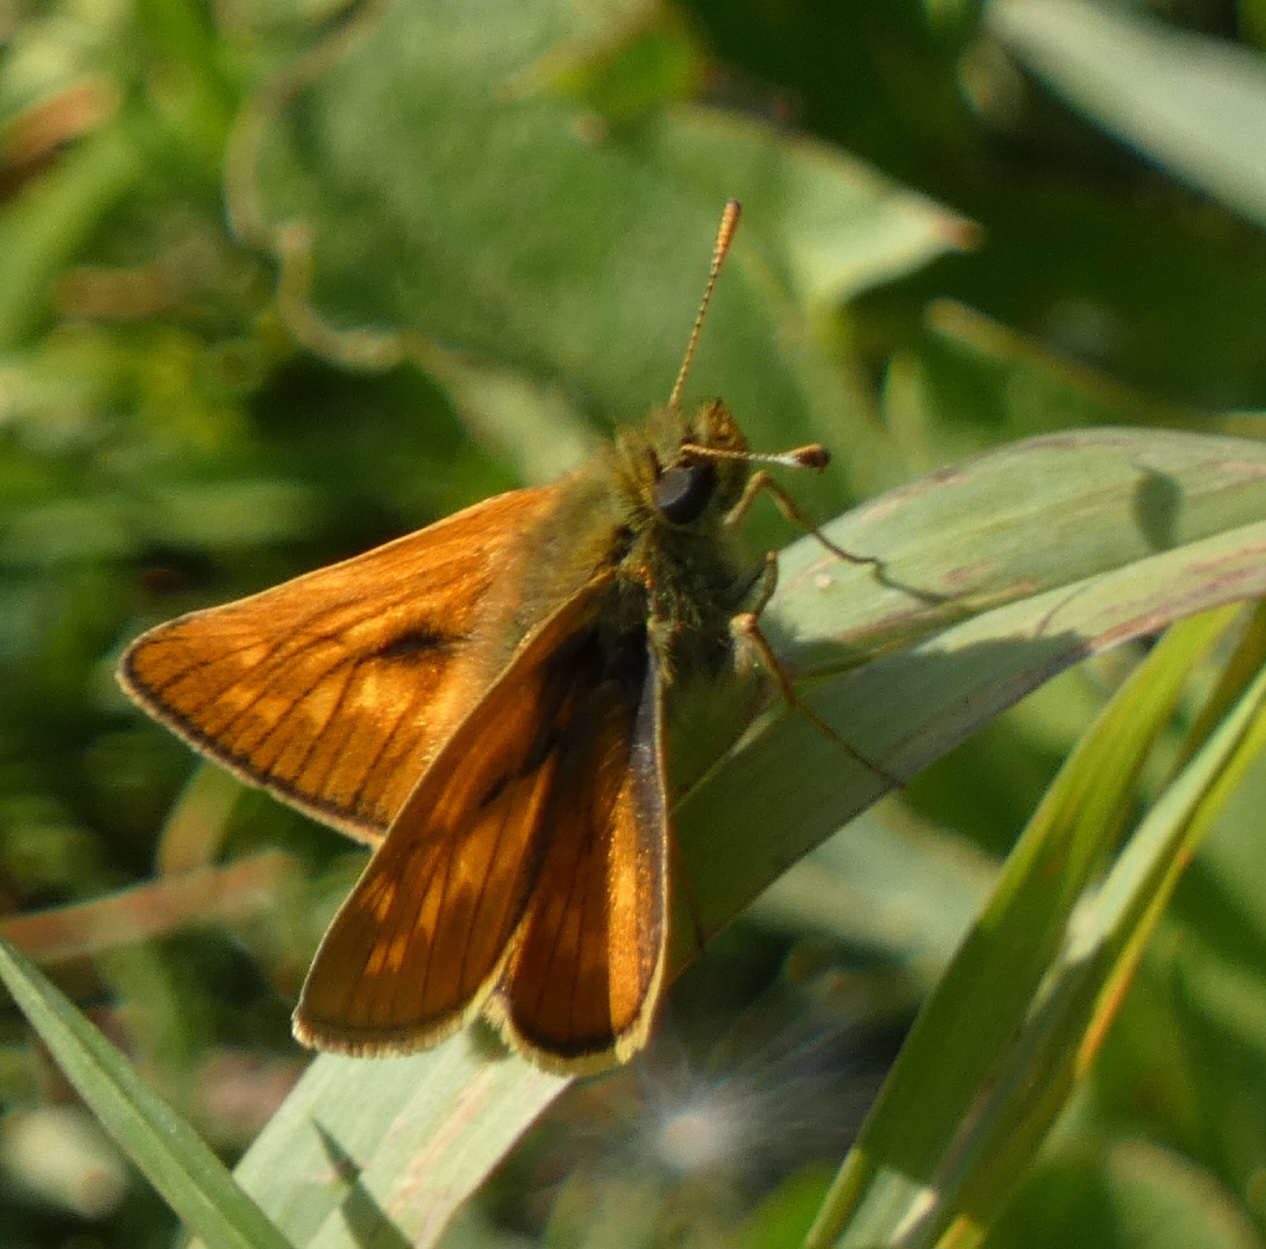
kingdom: Animalia
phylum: Arthropoda
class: Insecta
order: Lepidoptera
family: Hesperiidae
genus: Ochlodes
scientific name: Ochlodes venata
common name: Stor bredpande
